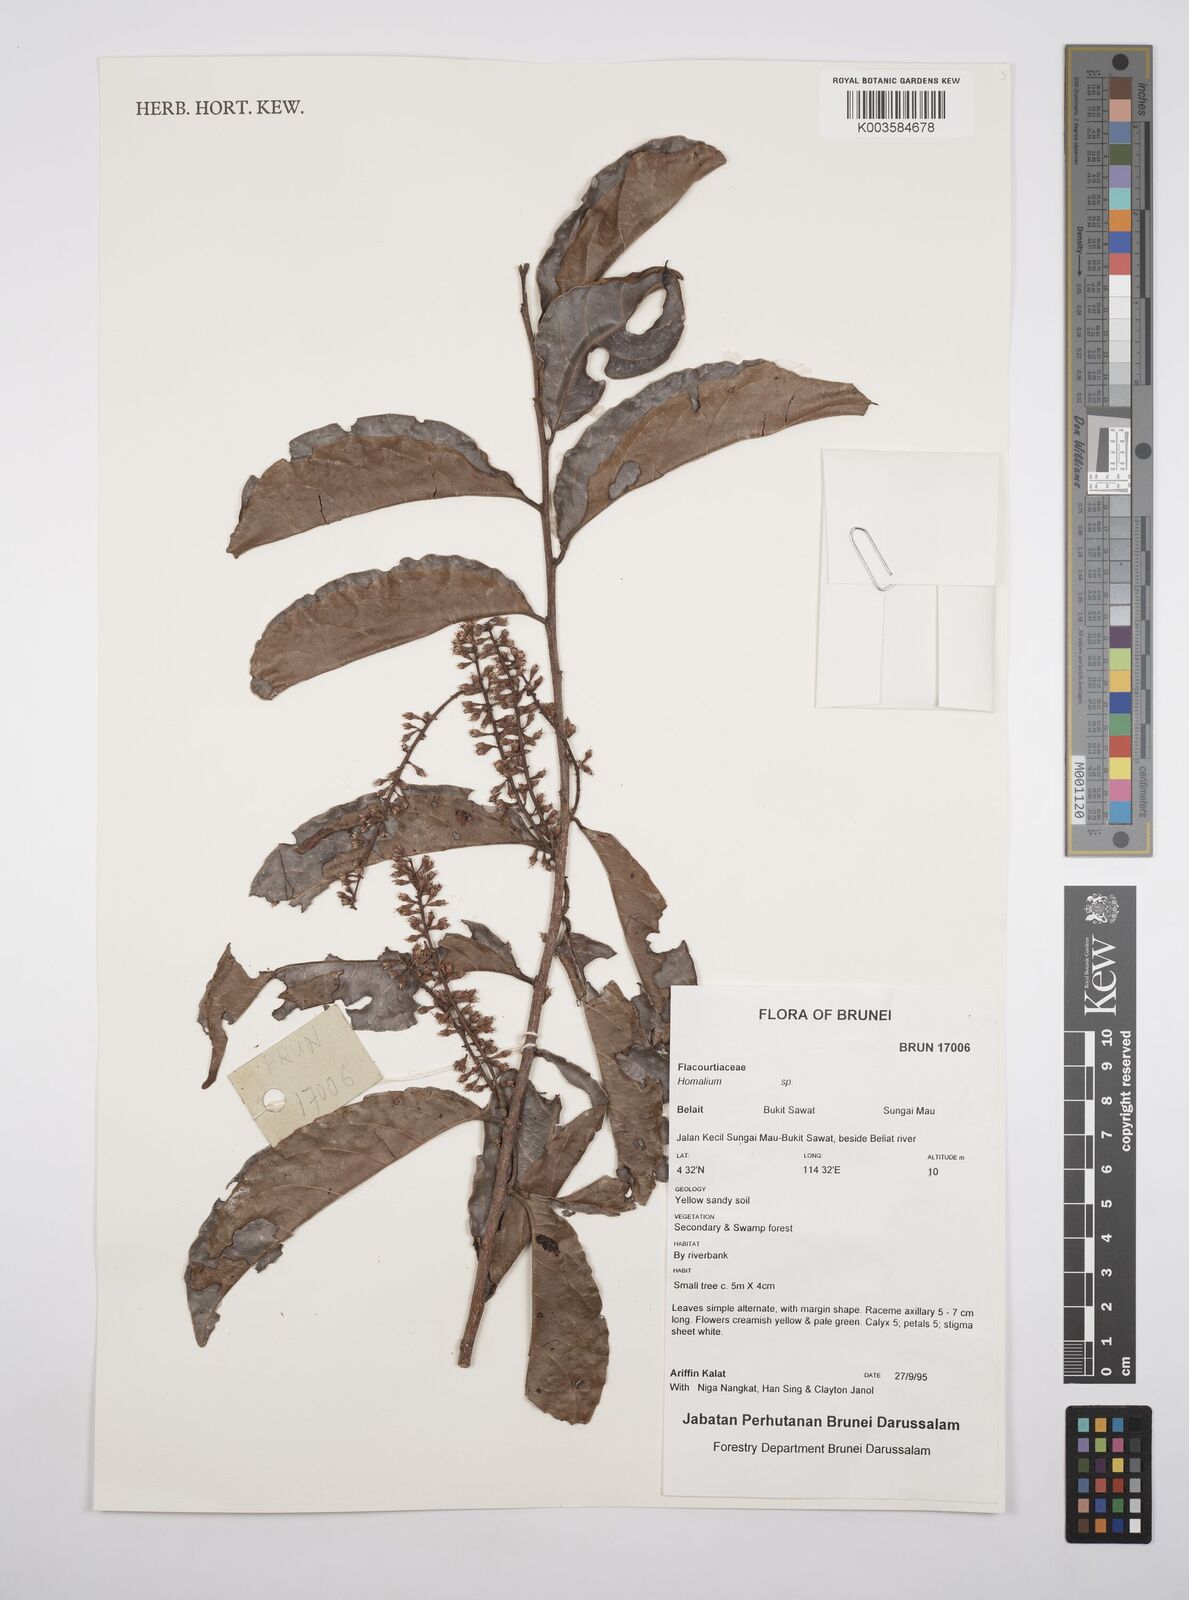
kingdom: Plantae
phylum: Tracheophyta
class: Magnoliopsida
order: Malpighiales
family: Salicaceae
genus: Homalium
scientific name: Homalium
